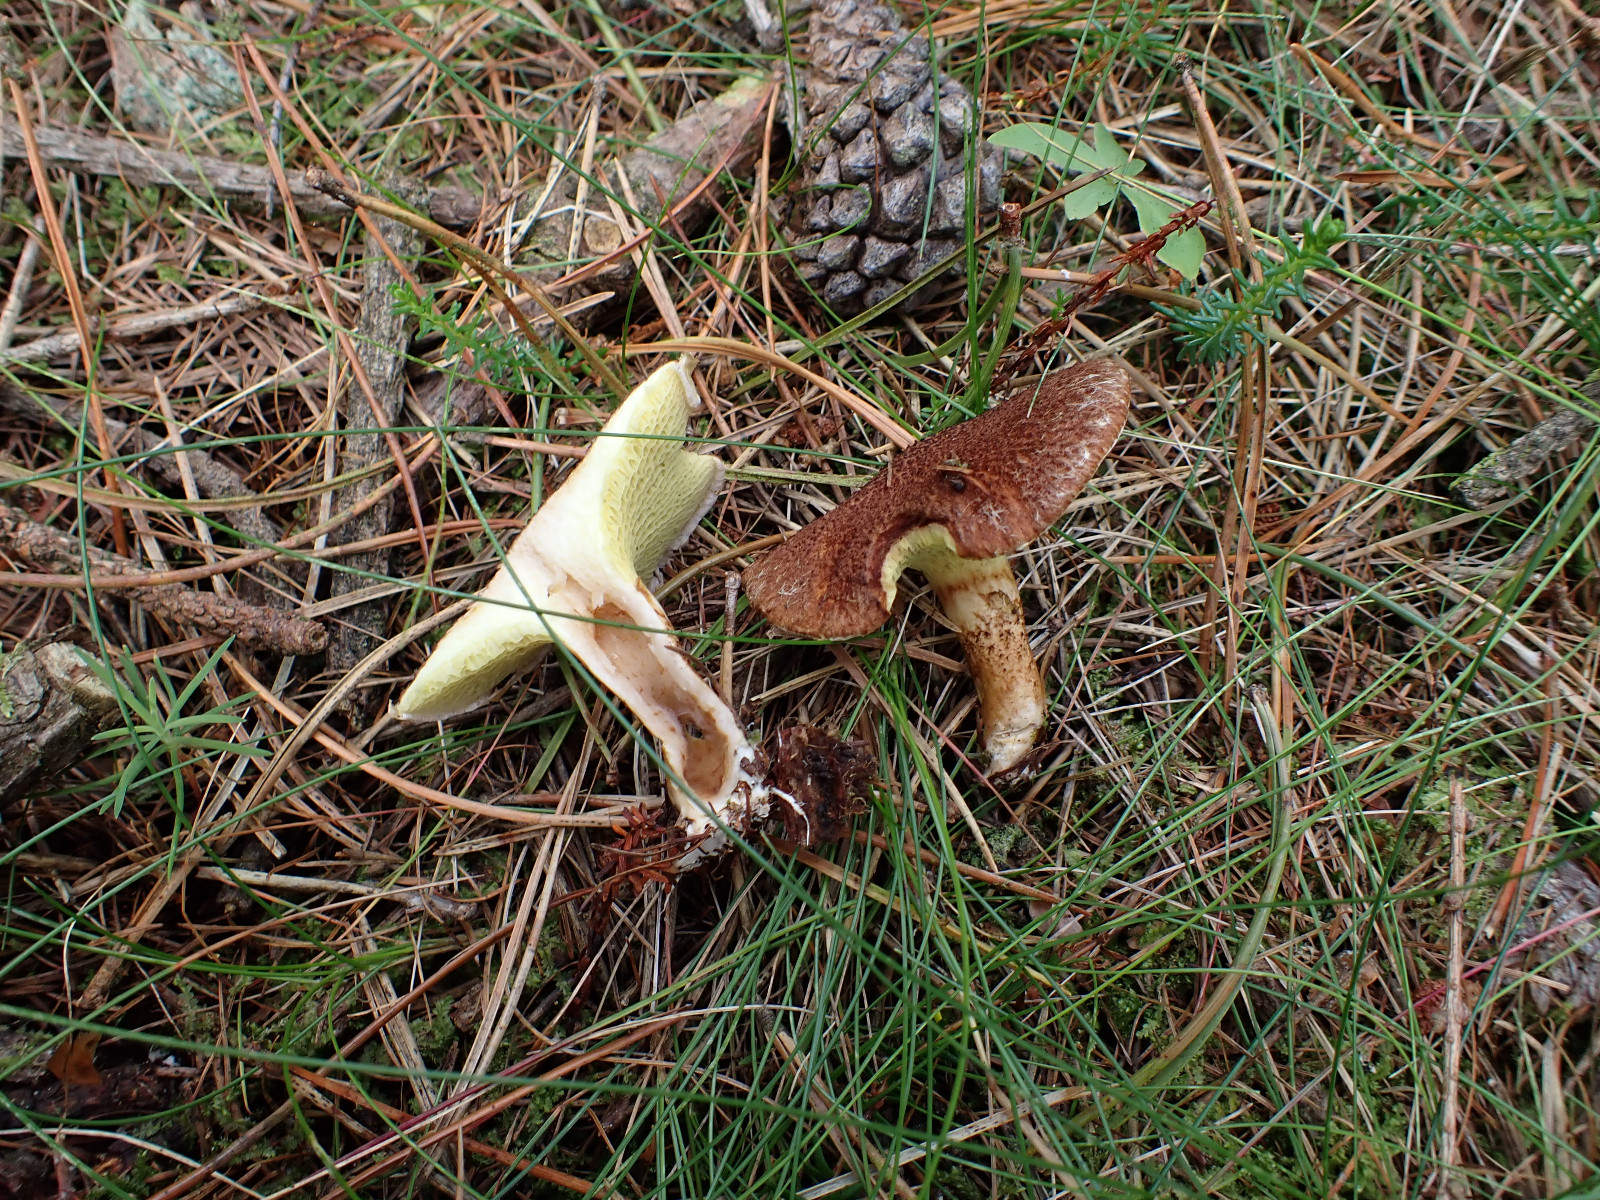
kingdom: Fungi
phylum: Basidiomycota
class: Agaricomycetes
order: Boletales
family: Suillaceae
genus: Suillus
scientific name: Suillus cavipes
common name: hulstokket slimrørhat
